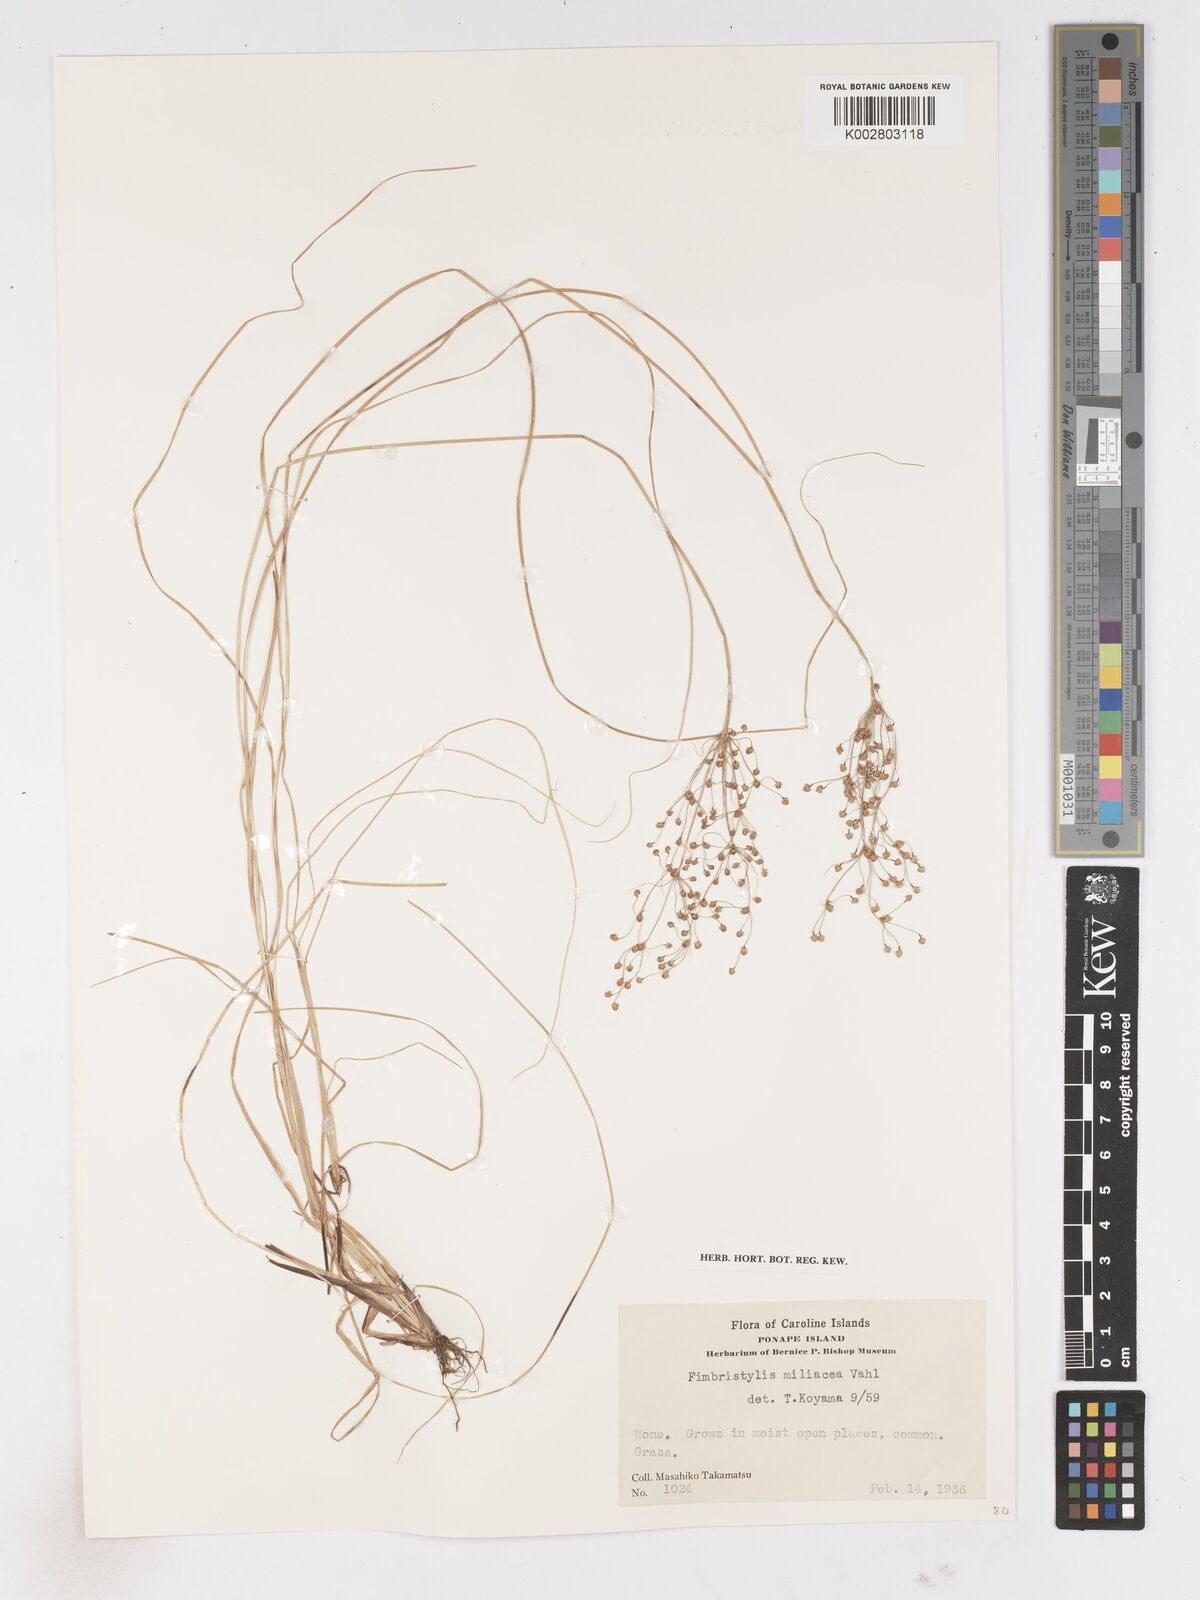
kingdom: Plantae
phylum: Tracheophyta
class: Liliopsida
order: Poales
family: Cyperaceae
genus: Fimbristylis
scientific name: Fimbristylis littoralis
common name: Fimbry
